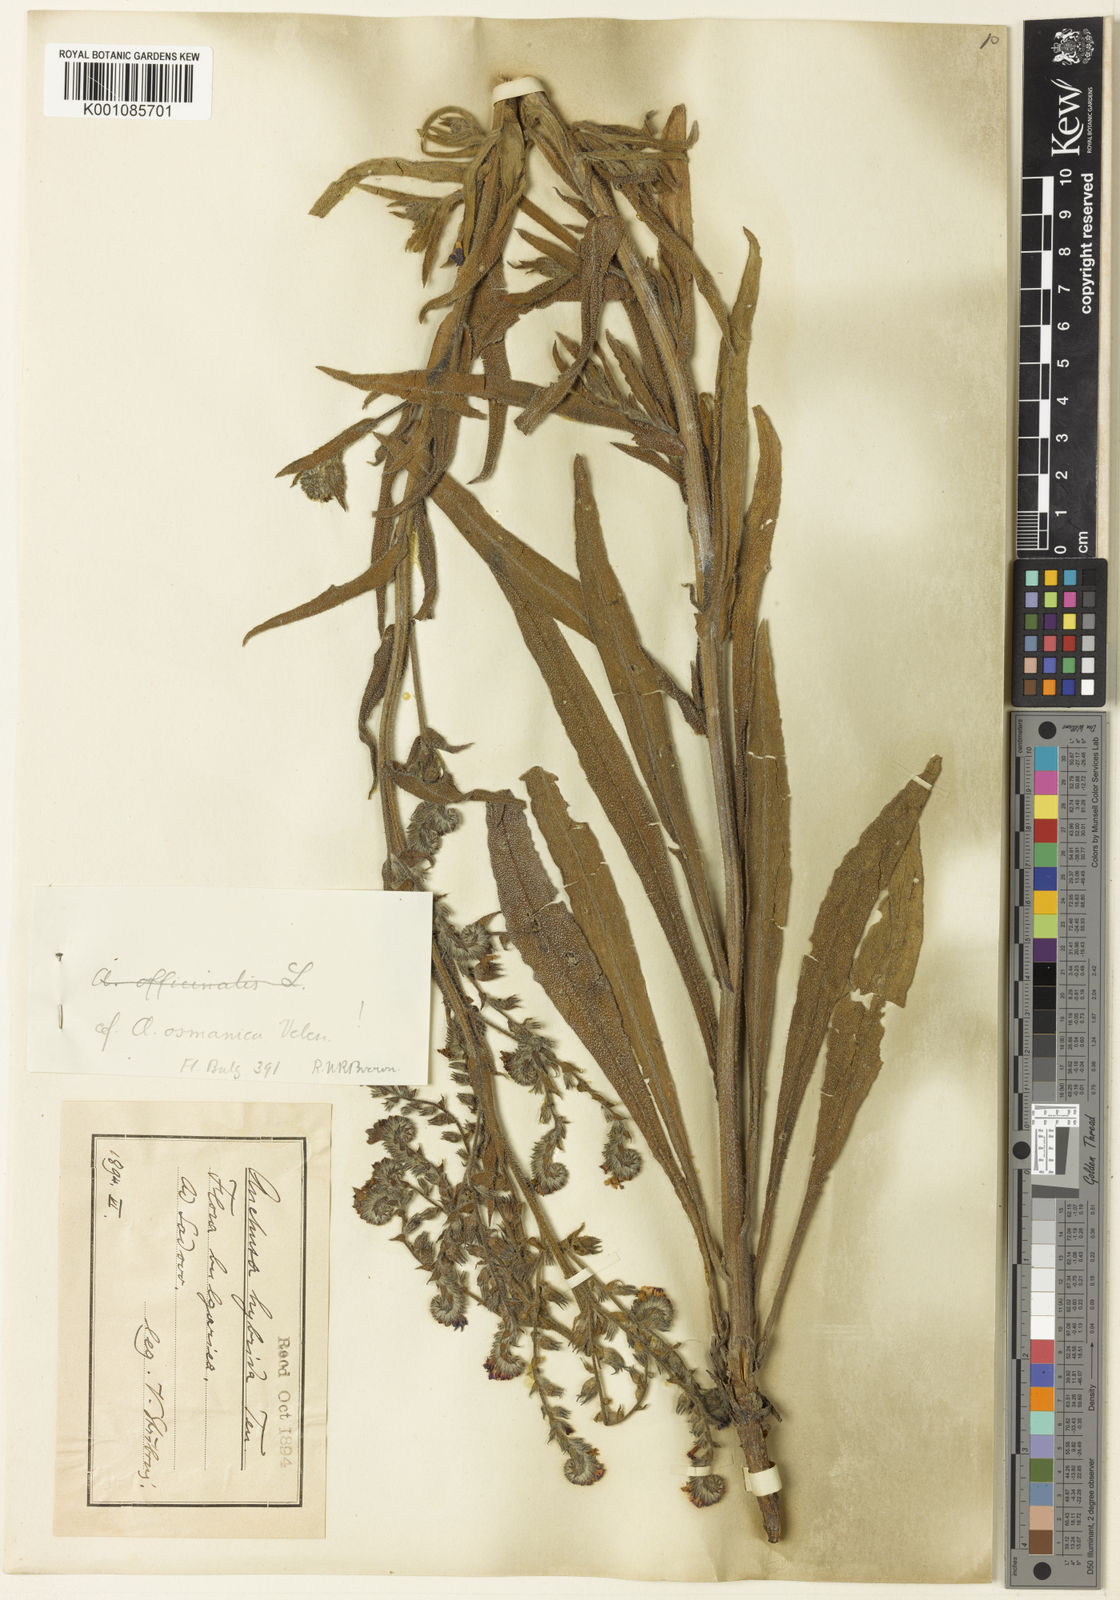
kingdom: Plantae
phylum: Tracheophyta
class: Magnoliopsida
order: Boraginales
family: Boraginaceae
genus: Anchusa
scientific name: Anchusa officinalis
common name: Alkanet
